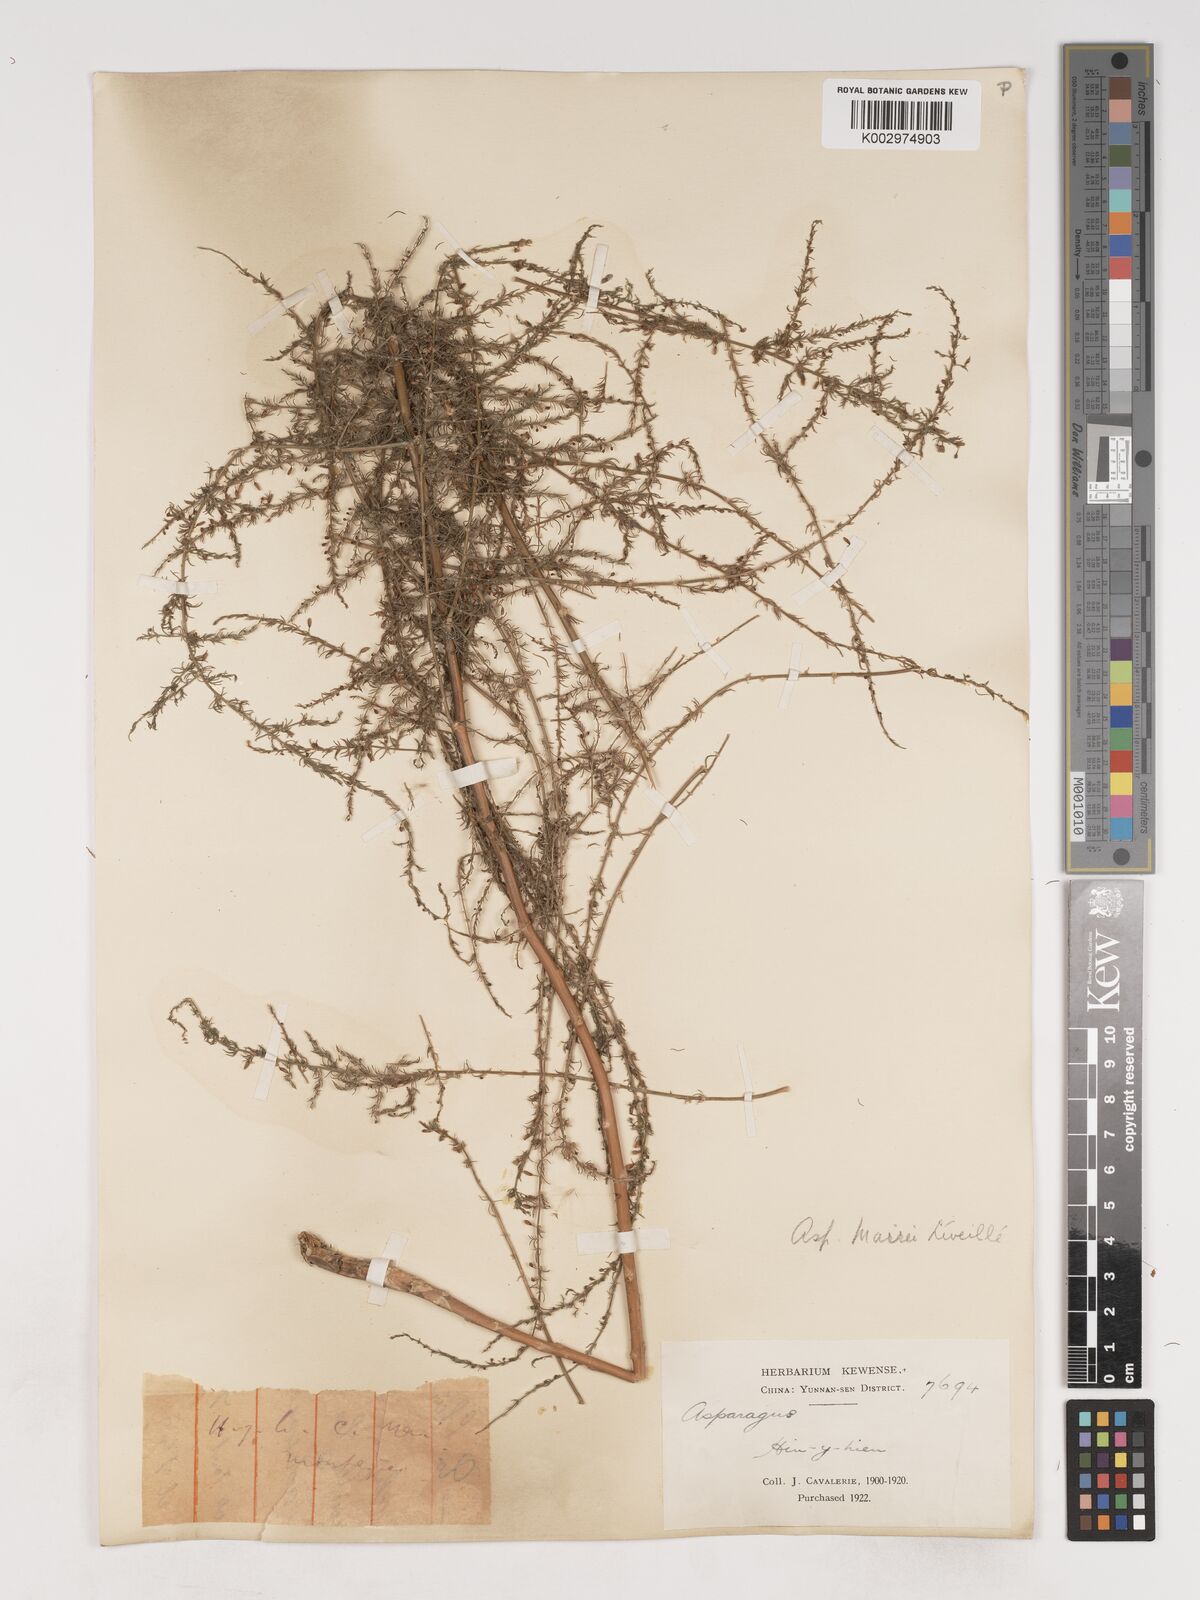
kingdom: Plantae
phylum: Tracheophyta
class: Liliopsida
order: Asparagales
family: Asparagaceae
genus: Asparagus
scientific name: Asparagus meioclados
